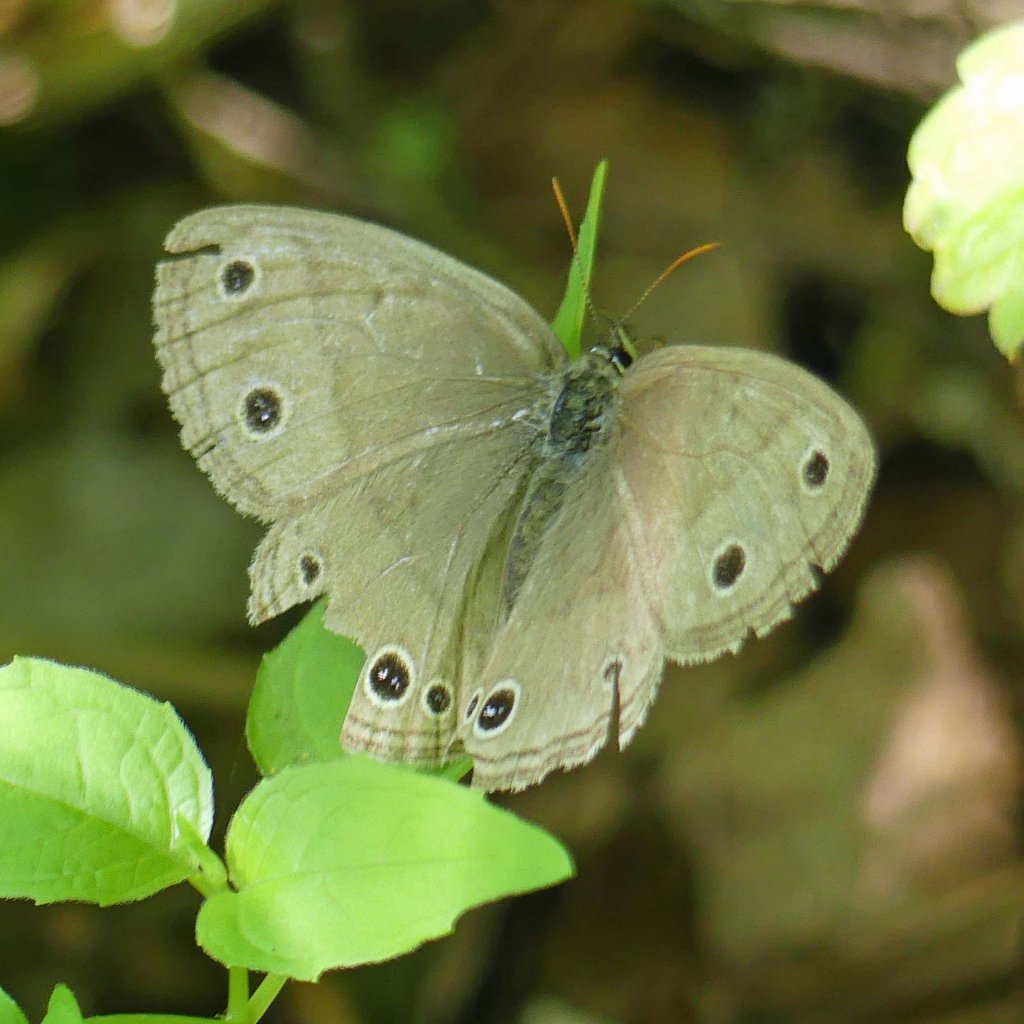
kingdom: Animalia
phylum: Arthropoda
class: Insecta
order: Lepidoptera
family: Nymphalidae
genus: Euptychia
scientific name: Euptychia cymela
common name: Little Wood Satyr
